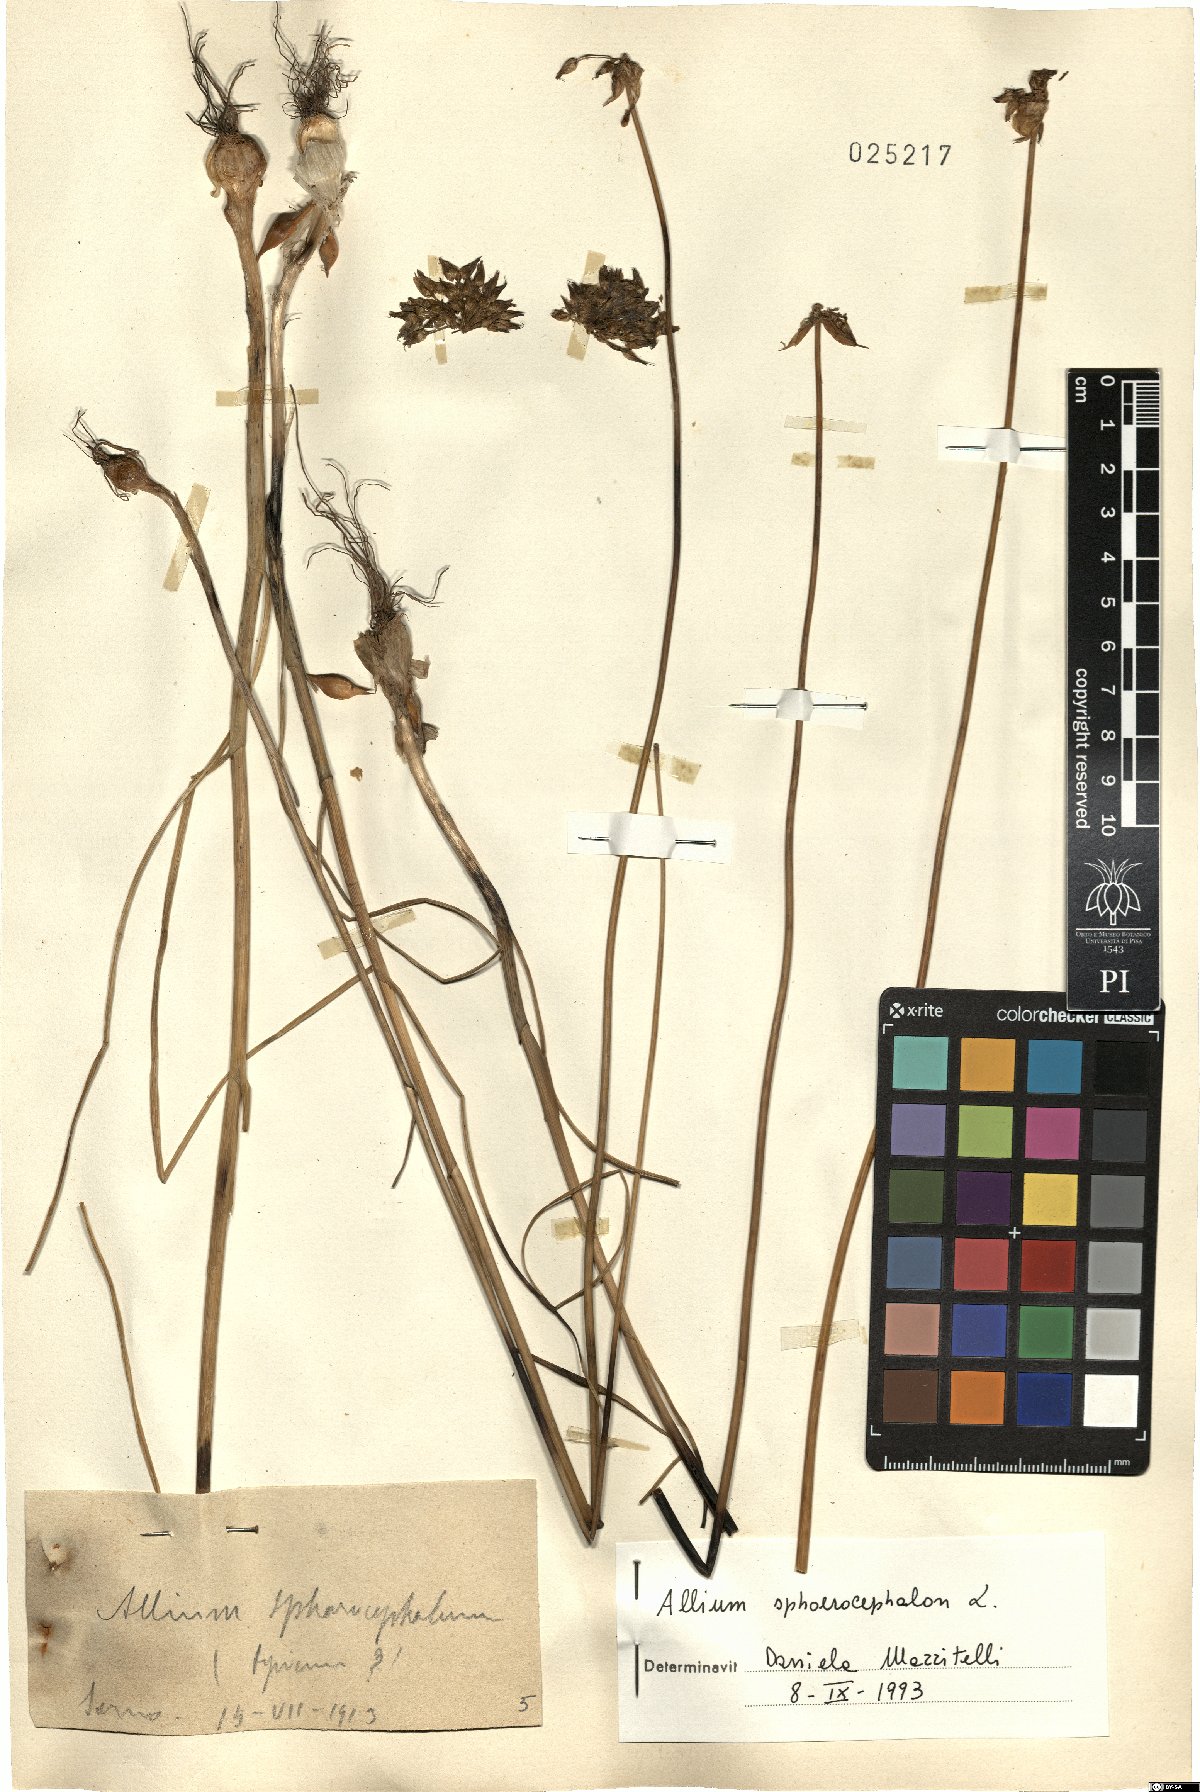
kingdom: Plantae
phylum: Tracheophyta
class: Liliopsida
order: Asparagales
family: Amaryllidaceae
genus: Allium
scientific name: Allium sphaerocephalon
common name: Round-headed leek
